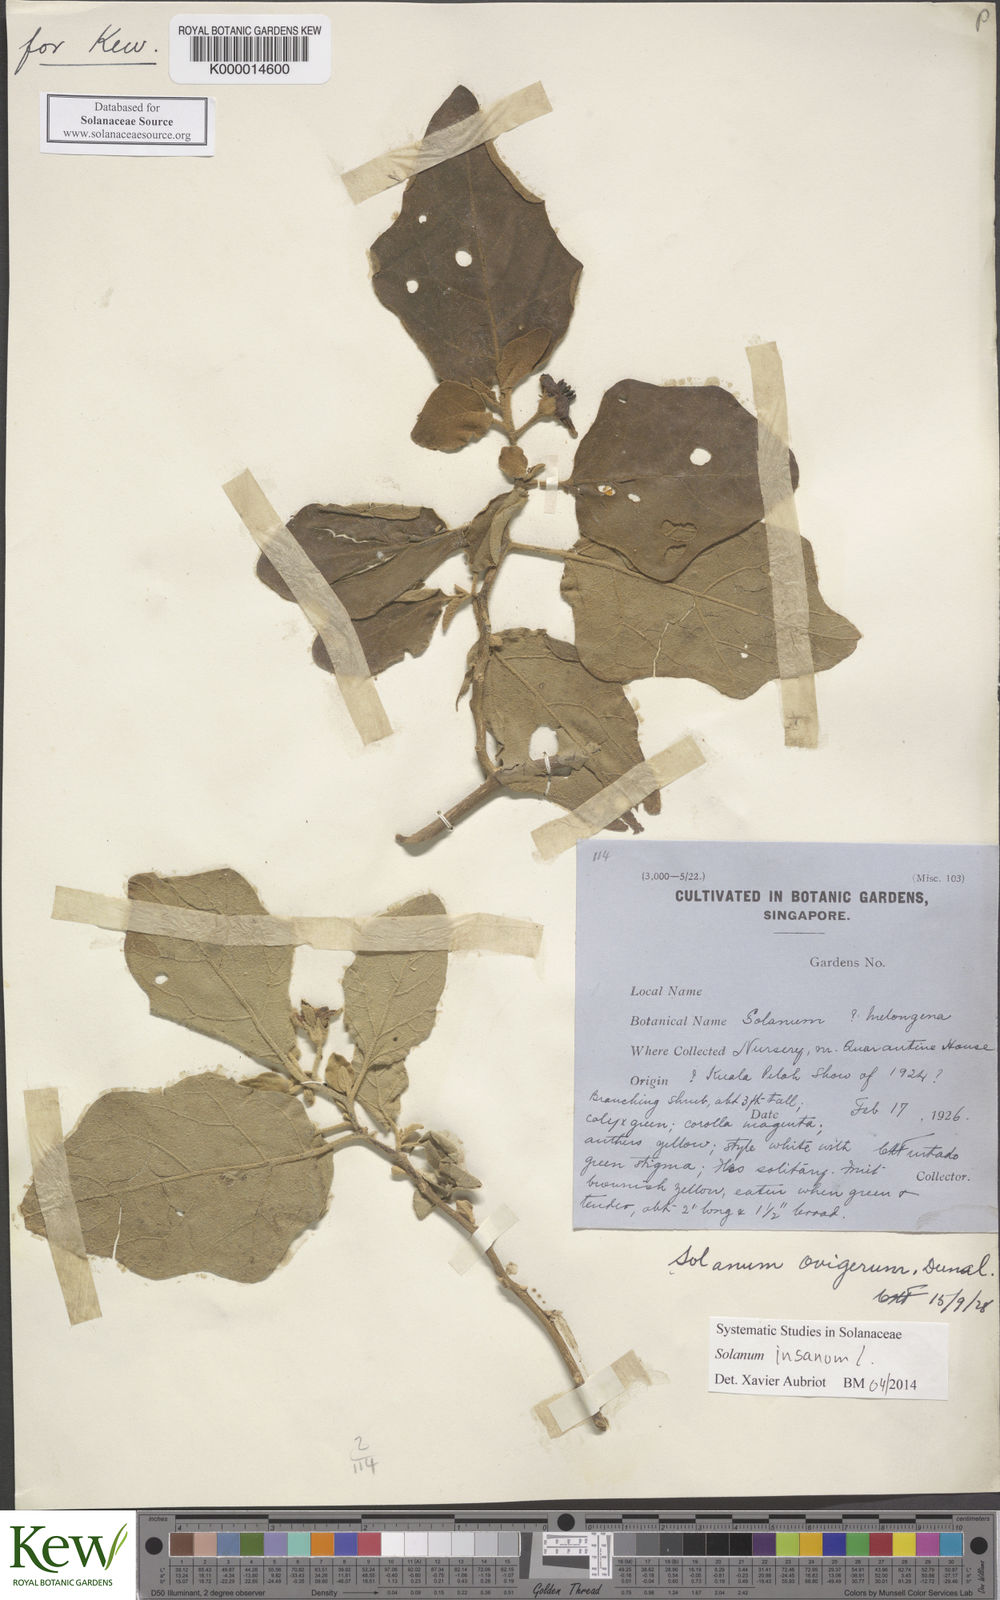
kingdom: Plantae
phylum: Tracheophyta
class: Magnoliopsida
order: Solanales
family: Solanaceae
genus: Solanum
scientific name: Solanum insanum
